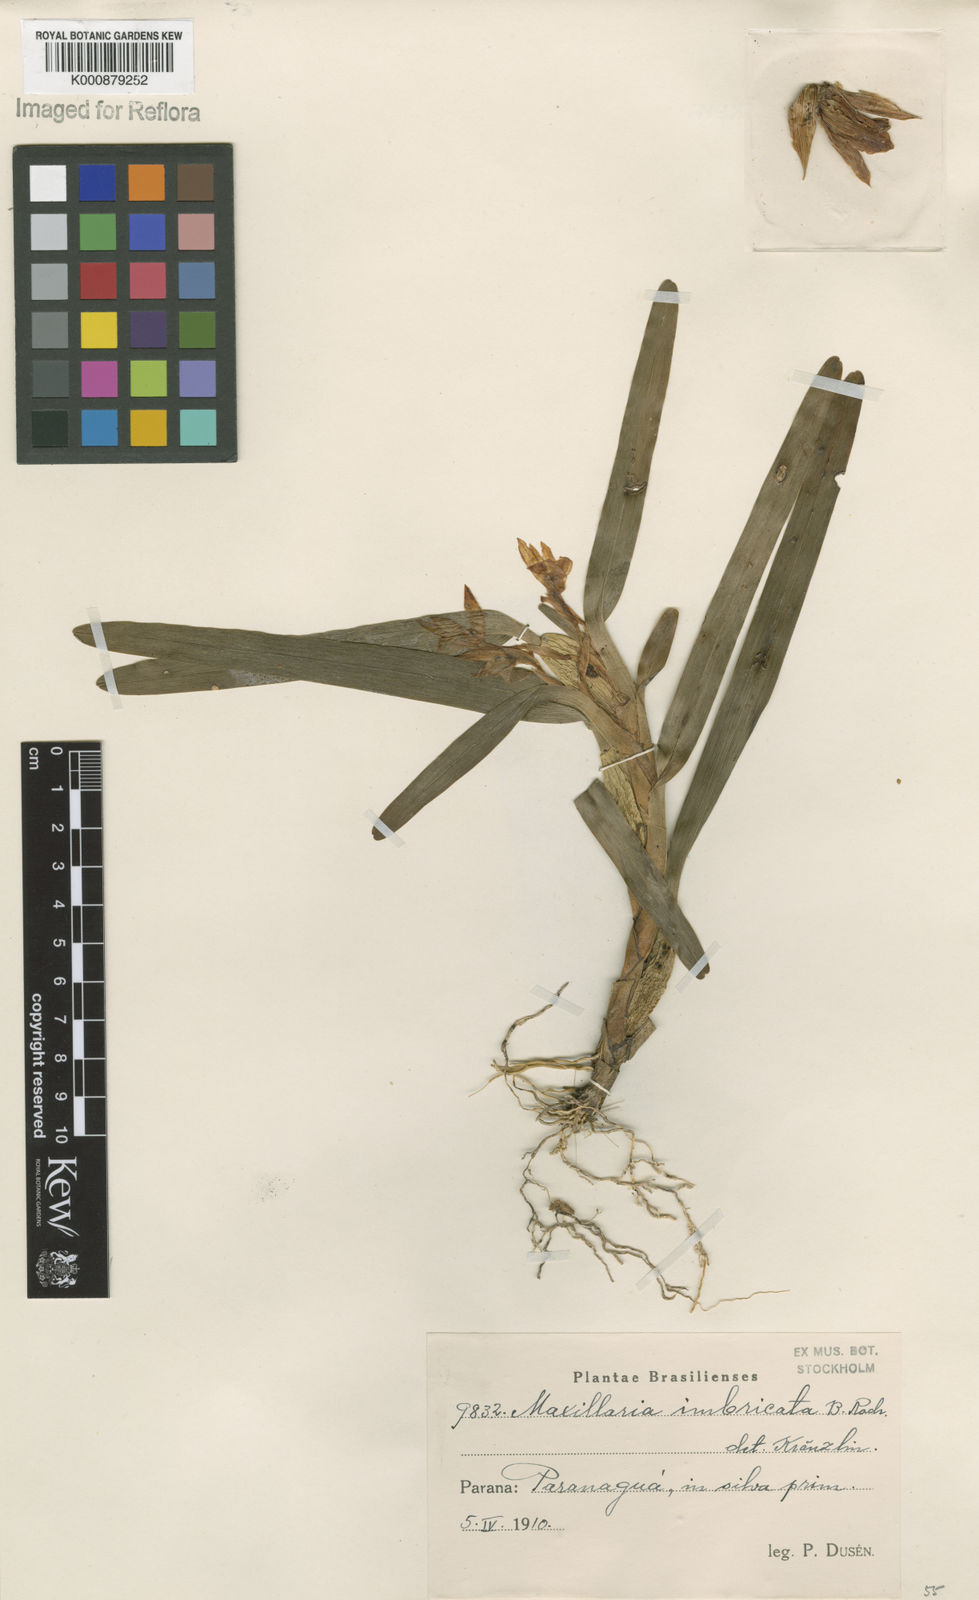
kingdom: Plantae
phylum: Tracheophyta
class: Liliopsida
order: Asparagales
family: Orchidaceae
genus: Maxillaria
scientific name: Maxillaria imbricata
